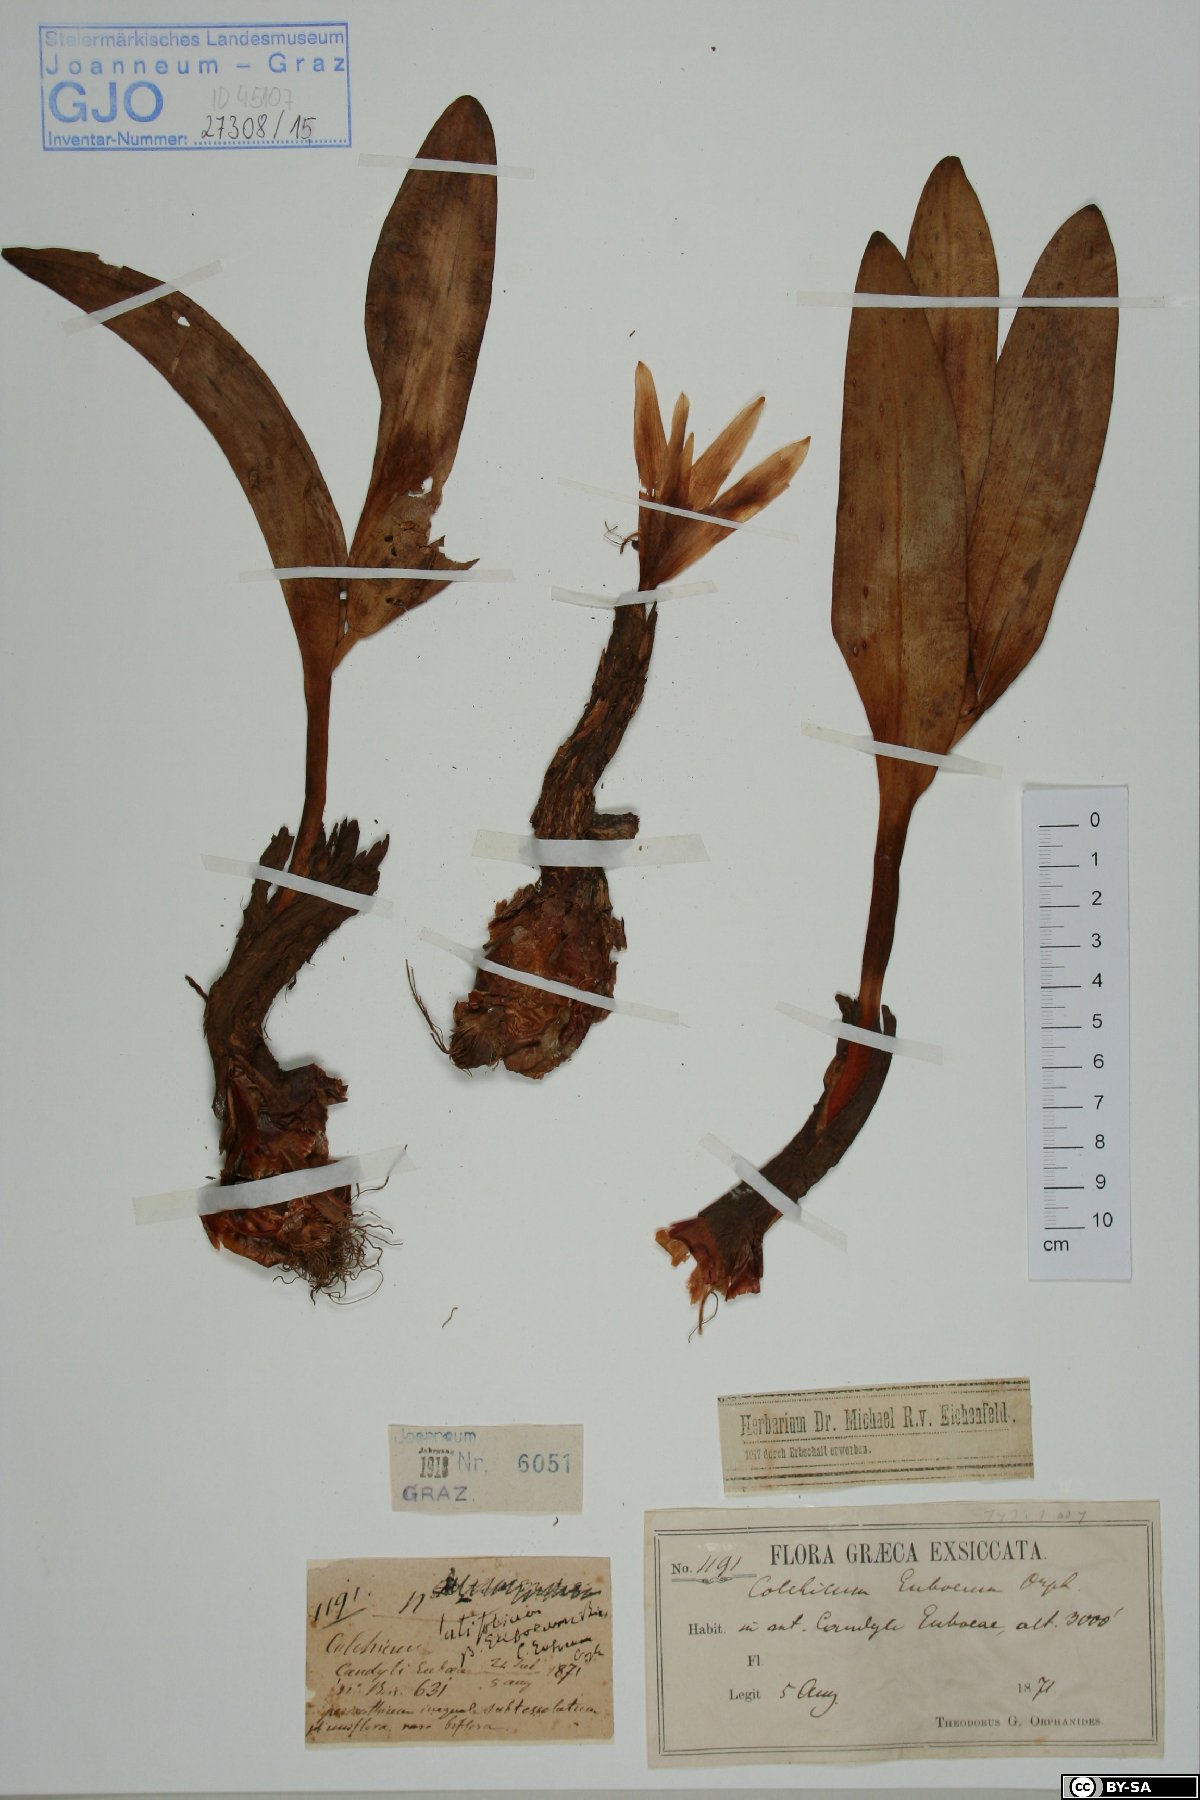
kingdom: Plantae
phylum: Tracheophyta
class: Liliopsida
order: Liliales
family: Colchicaceae
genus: Colchicum
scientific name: Colchicum euboeum
